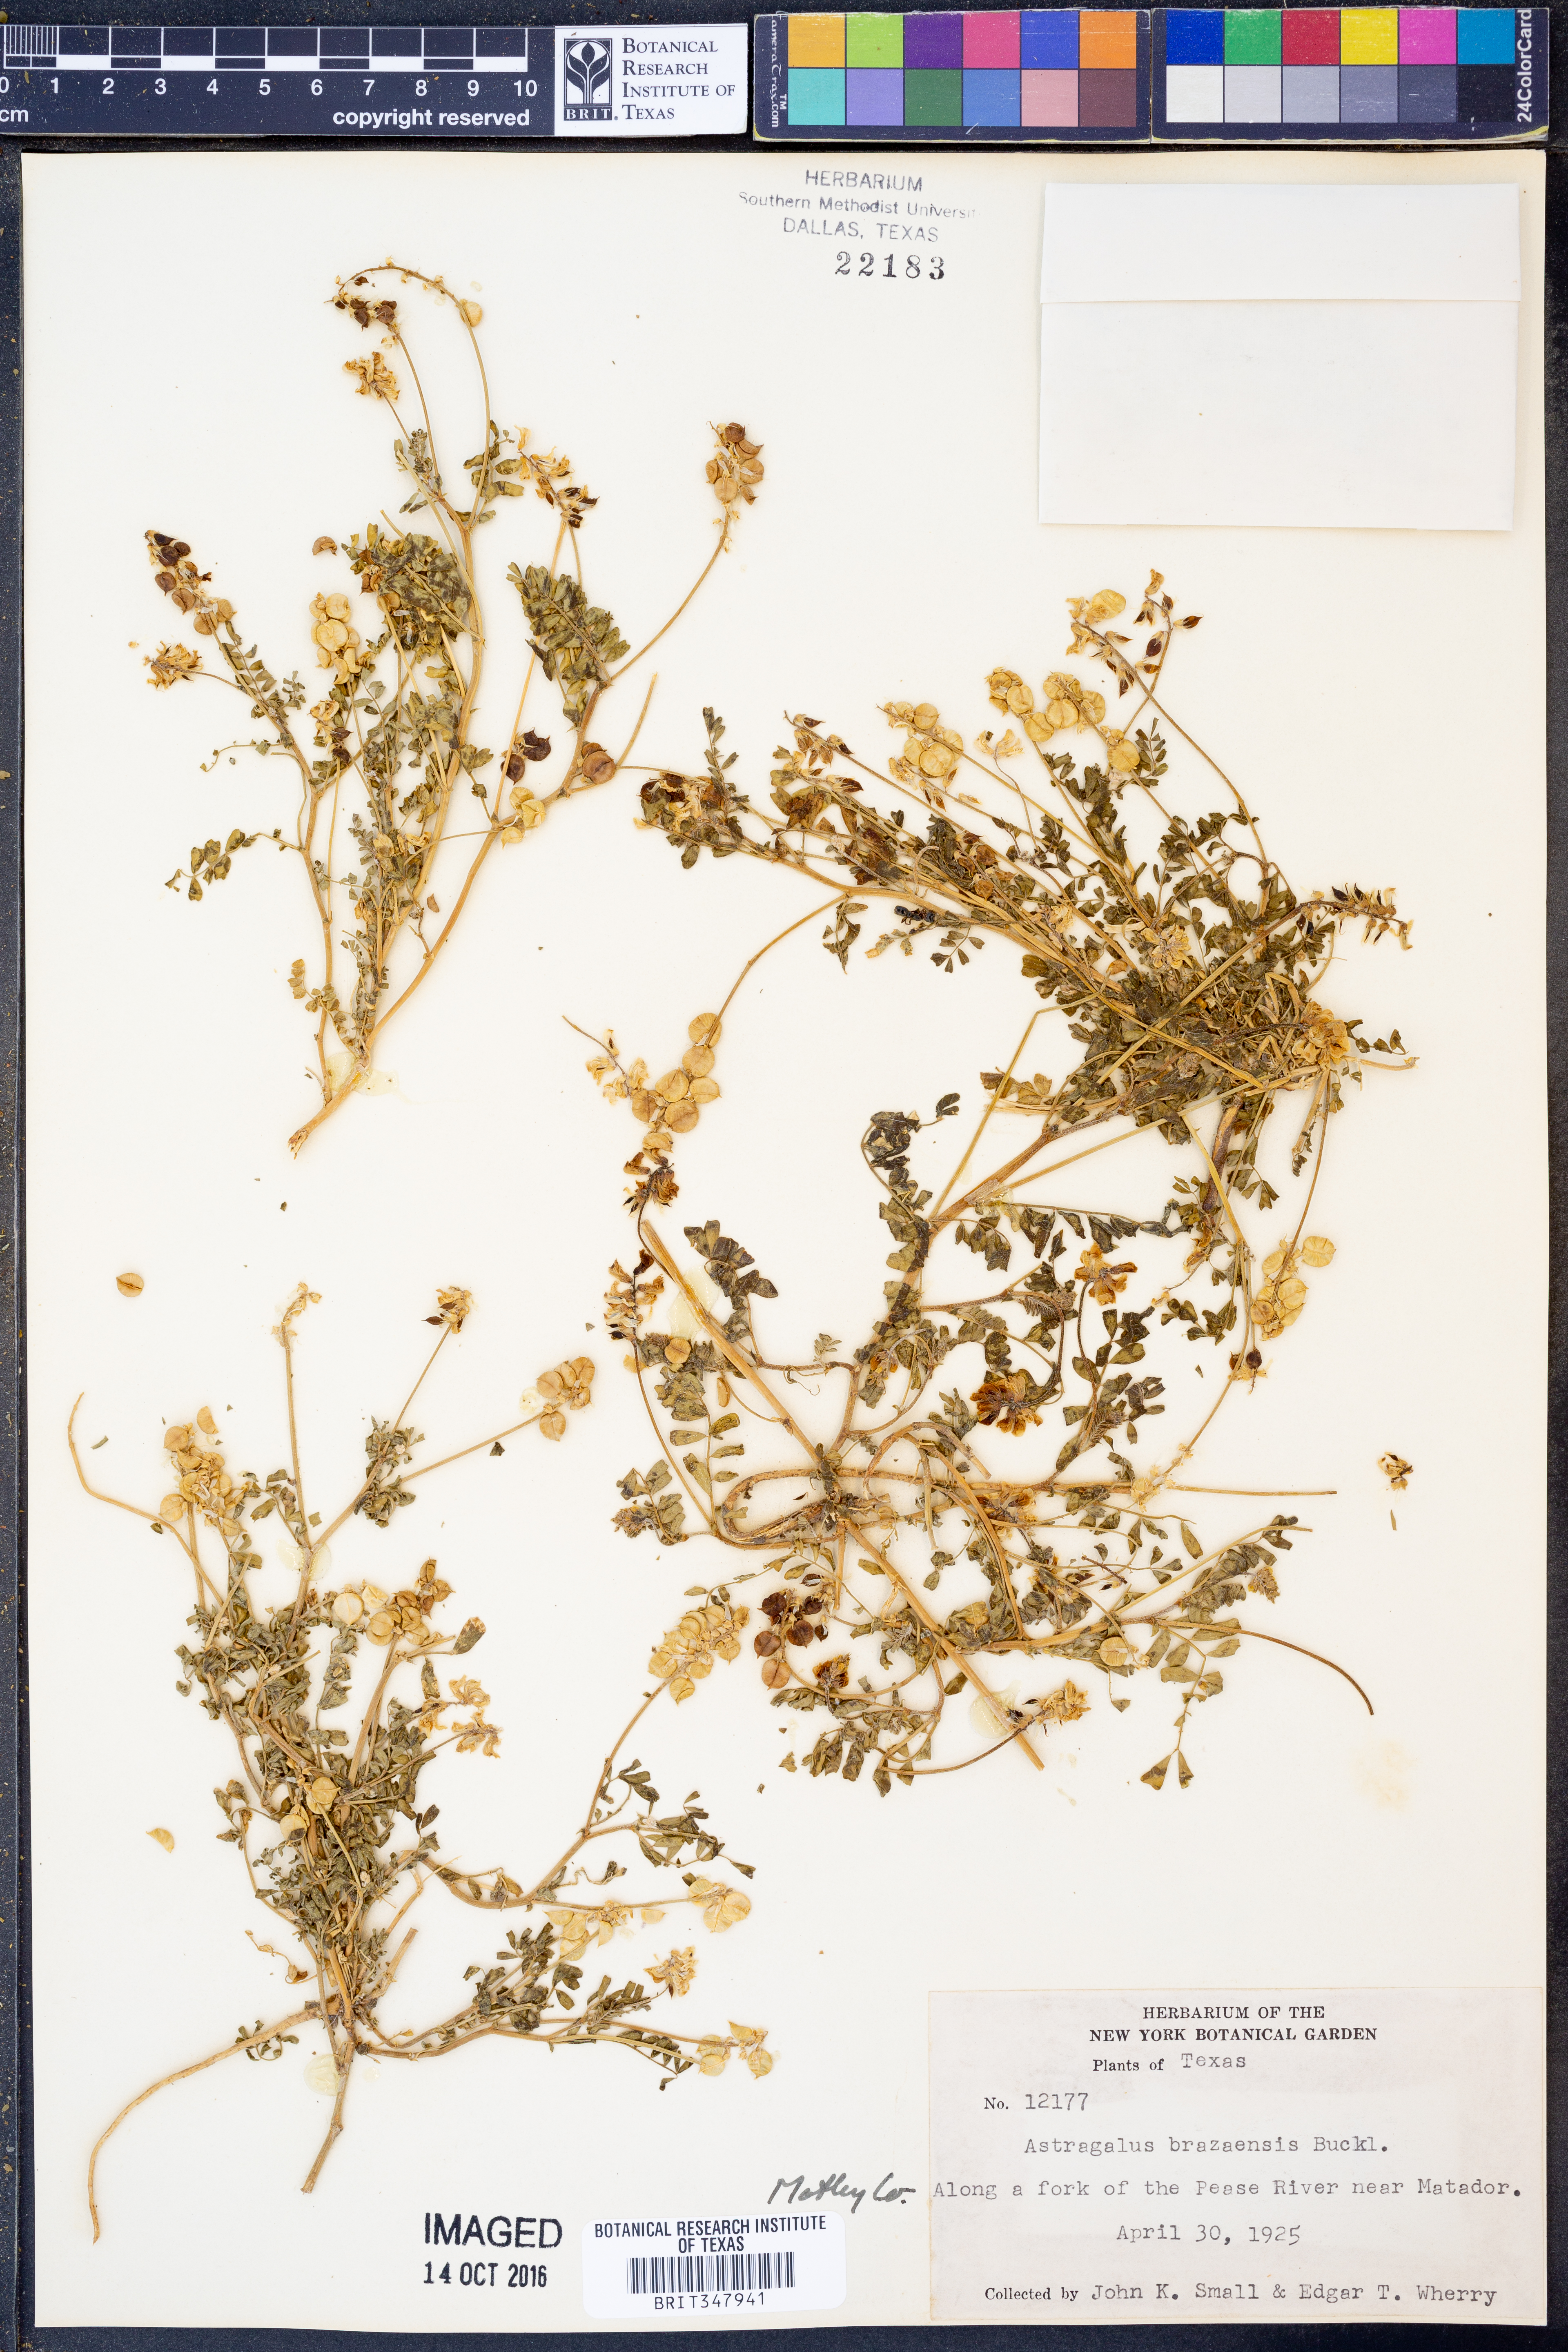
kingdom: Plantae
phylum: Tracheophyta
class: Magnoliopsida
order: Fabales
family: Fabaceae
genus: Astragalus
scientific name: Astragalus brazoensis
